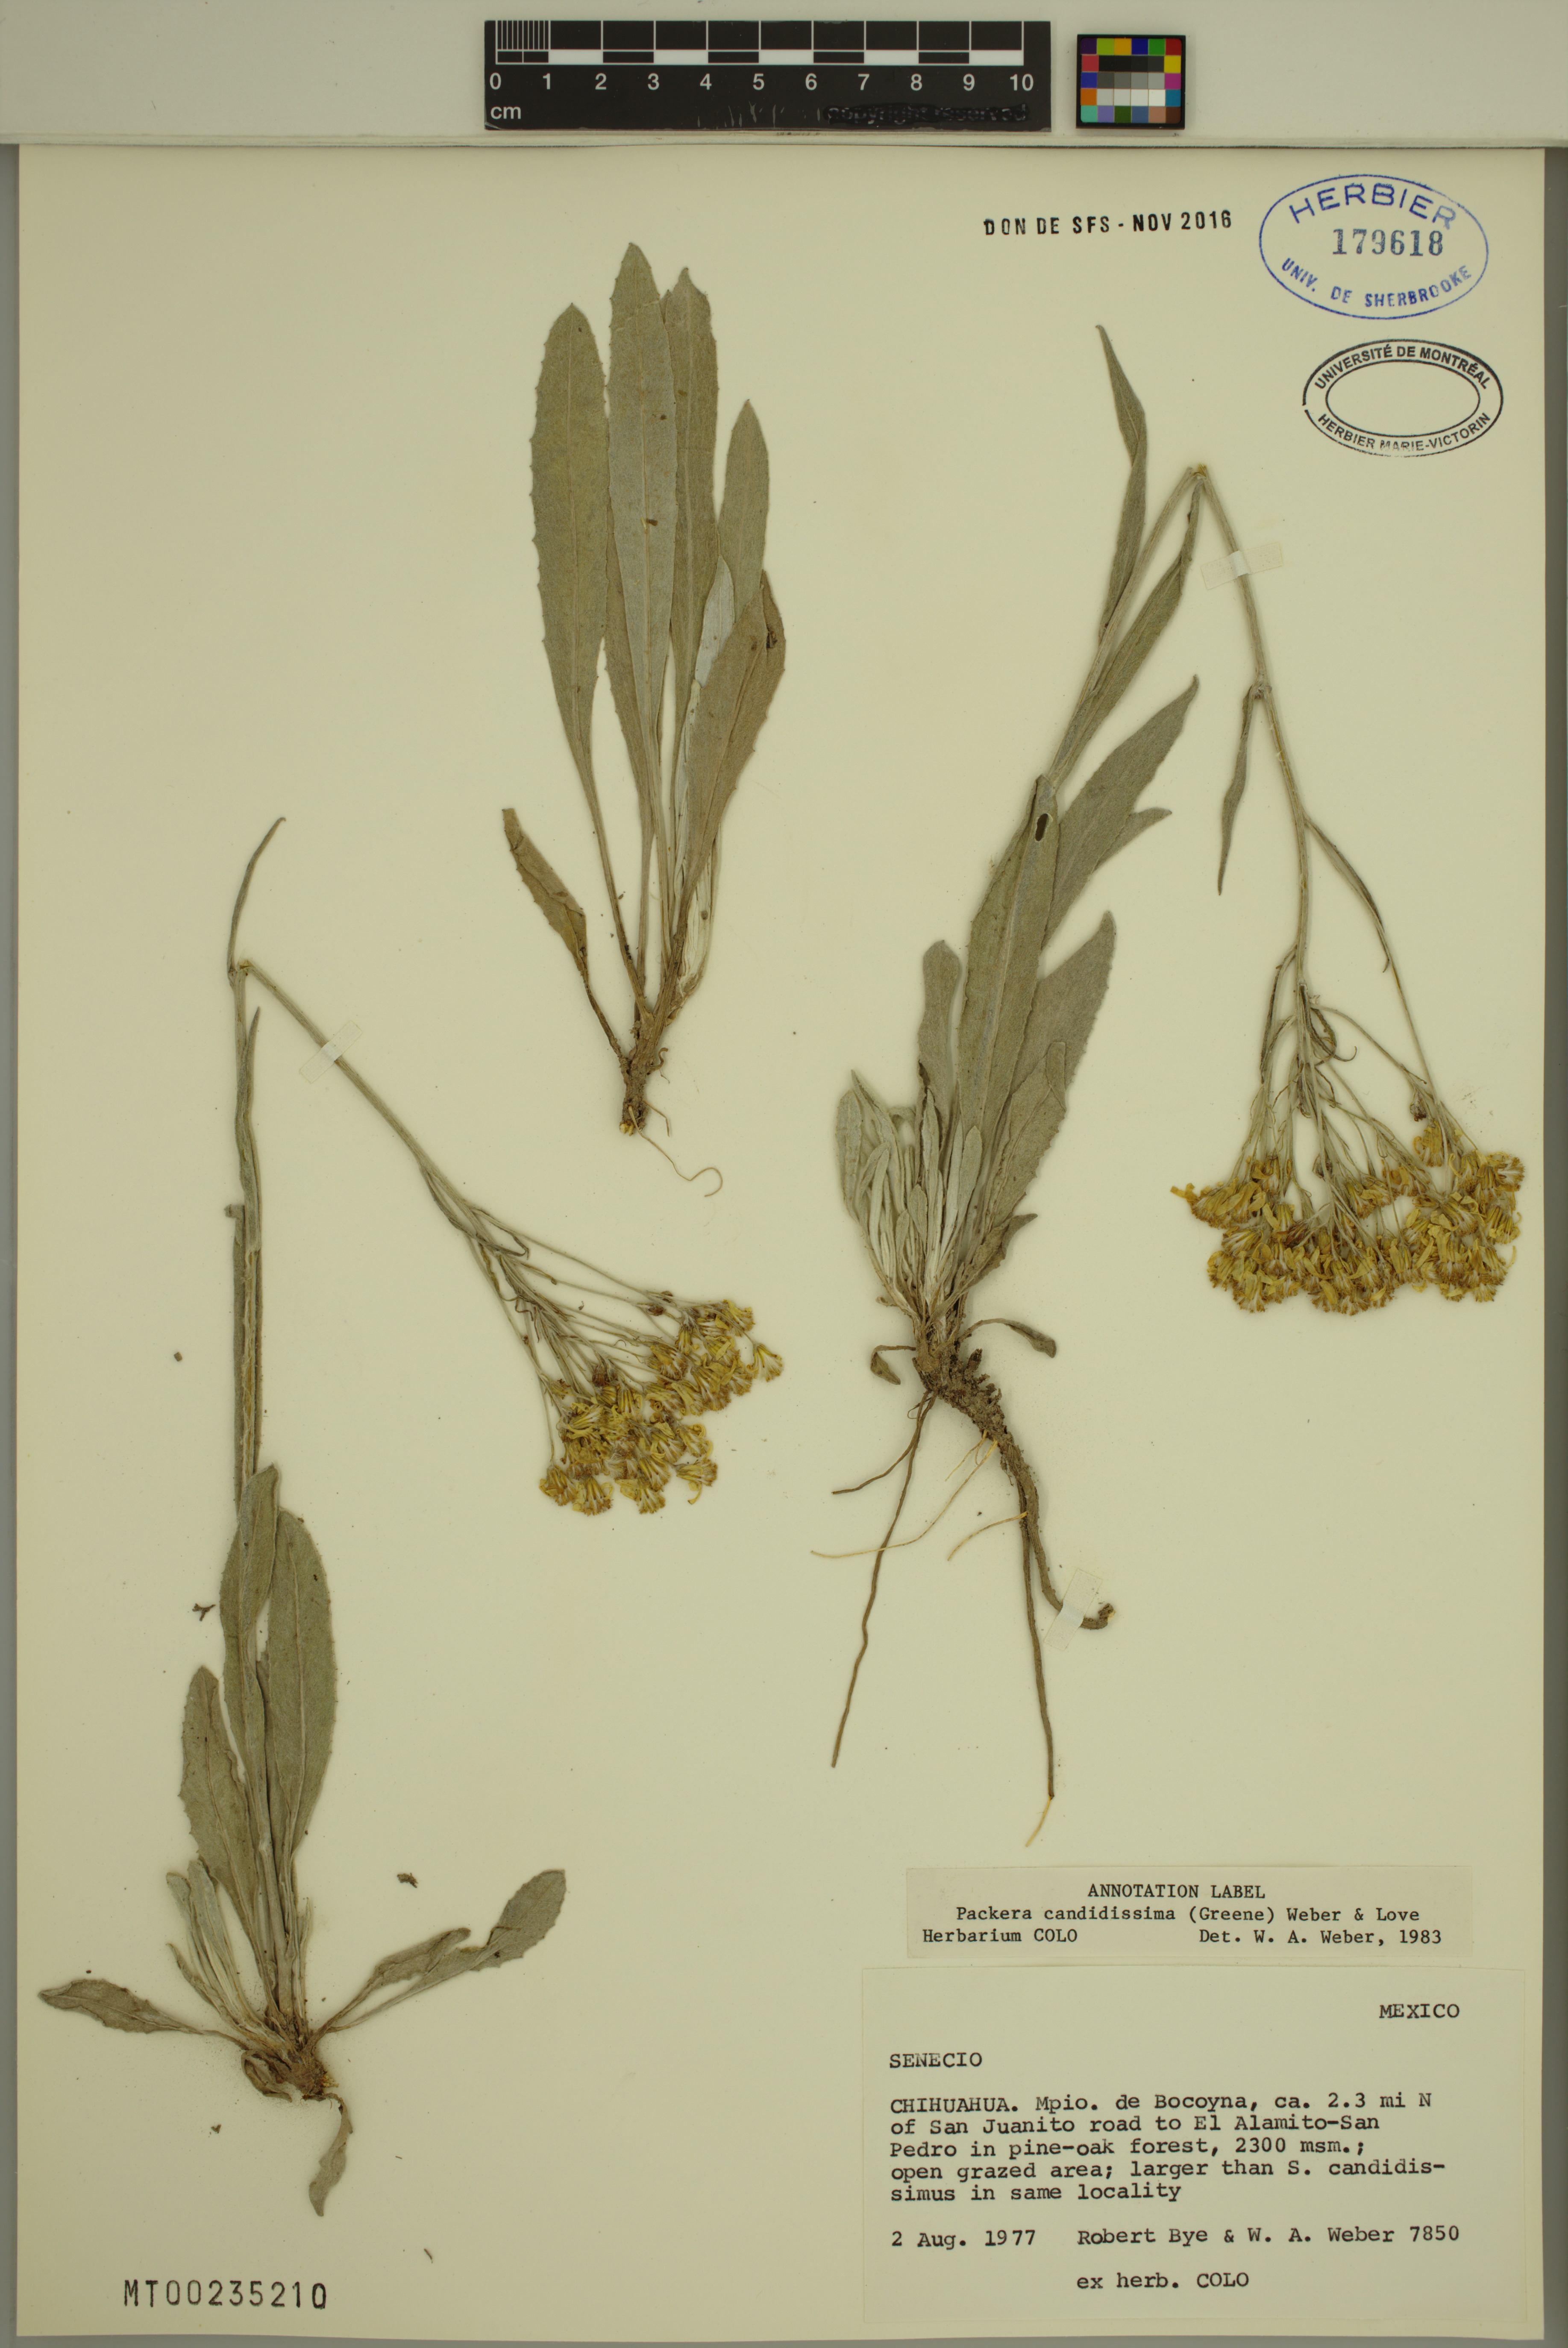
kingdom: Plantae
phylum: Tracheophyta
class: Magnoliopsida
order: Asterales
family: Asteraceae
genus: Packera
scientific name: Packera candidissima
